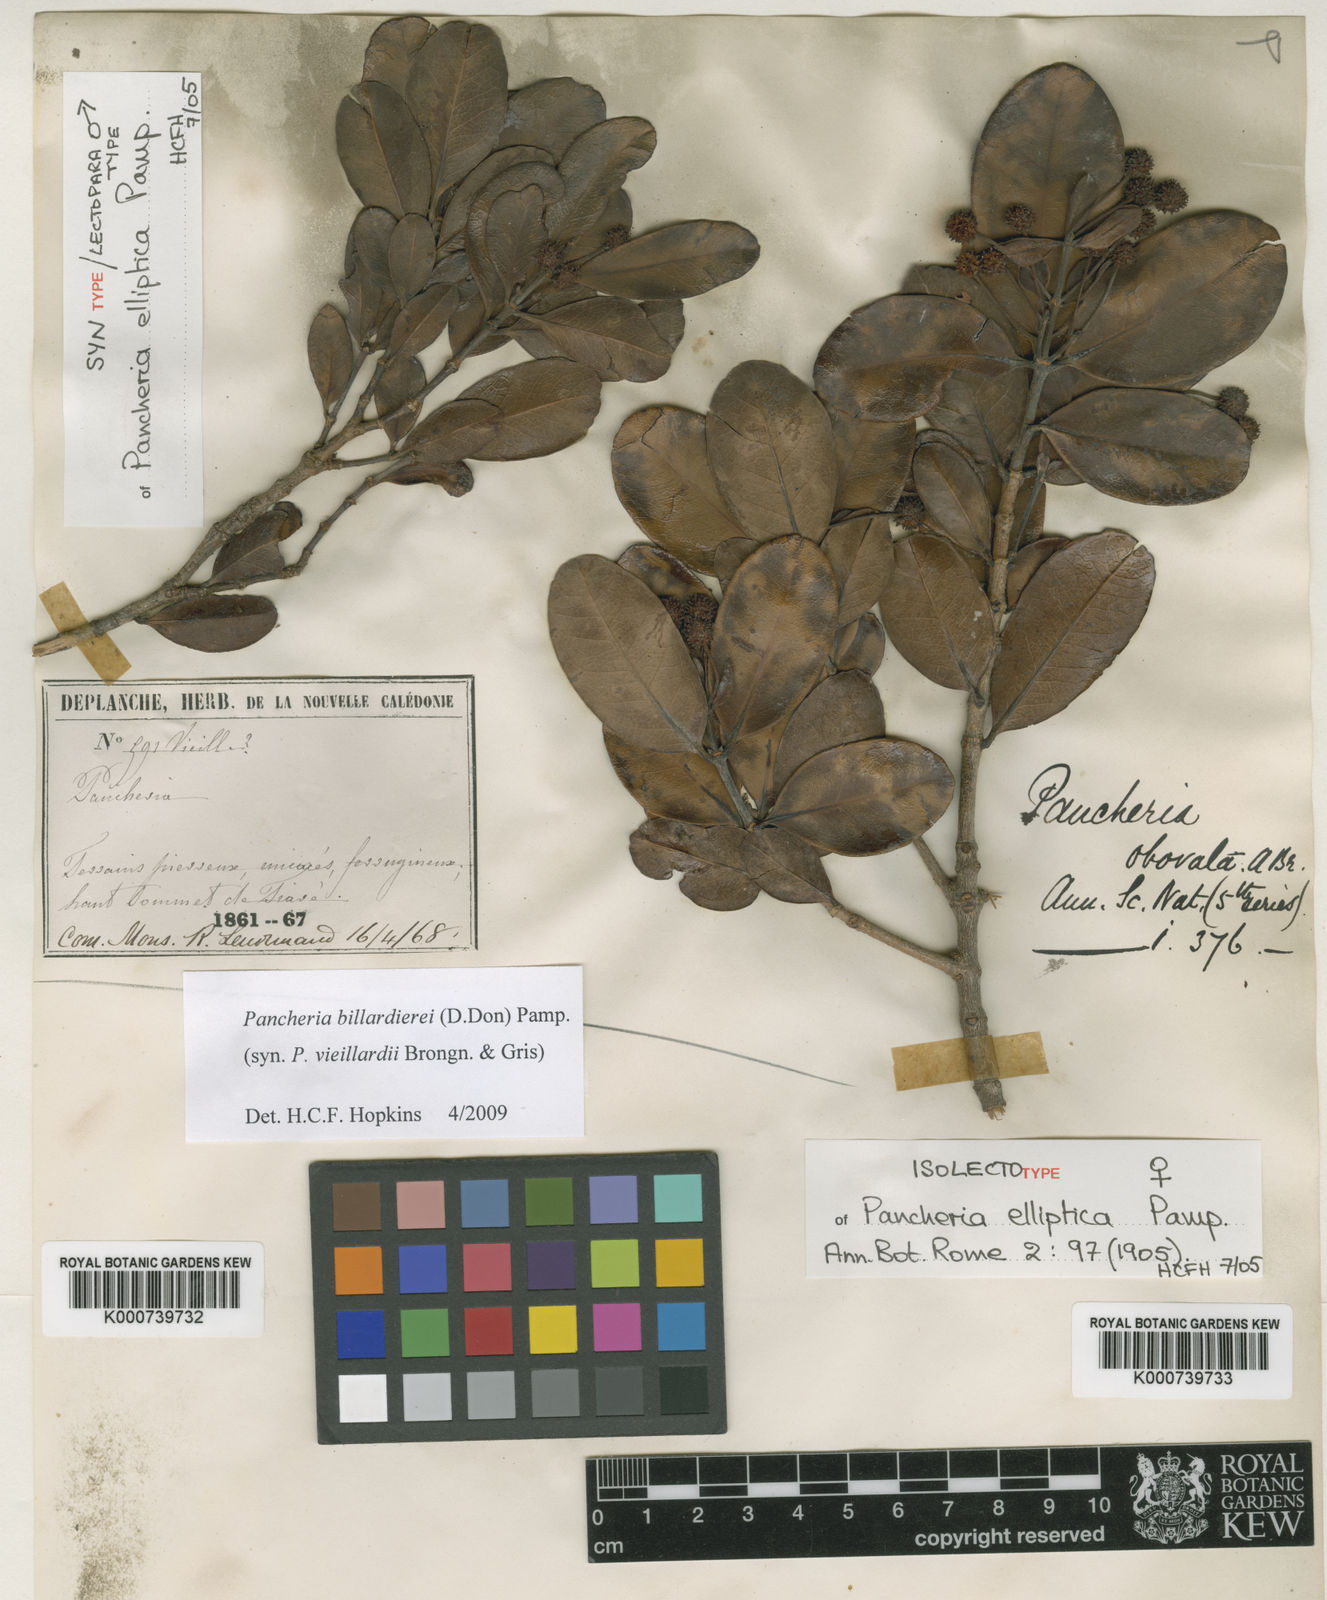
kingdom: Plantae
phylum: Tracheophyta
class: Magnoliopsida
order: Oxalidales
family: Cunoniaceae
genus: Pancheria
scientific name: Pancheria billardierei
